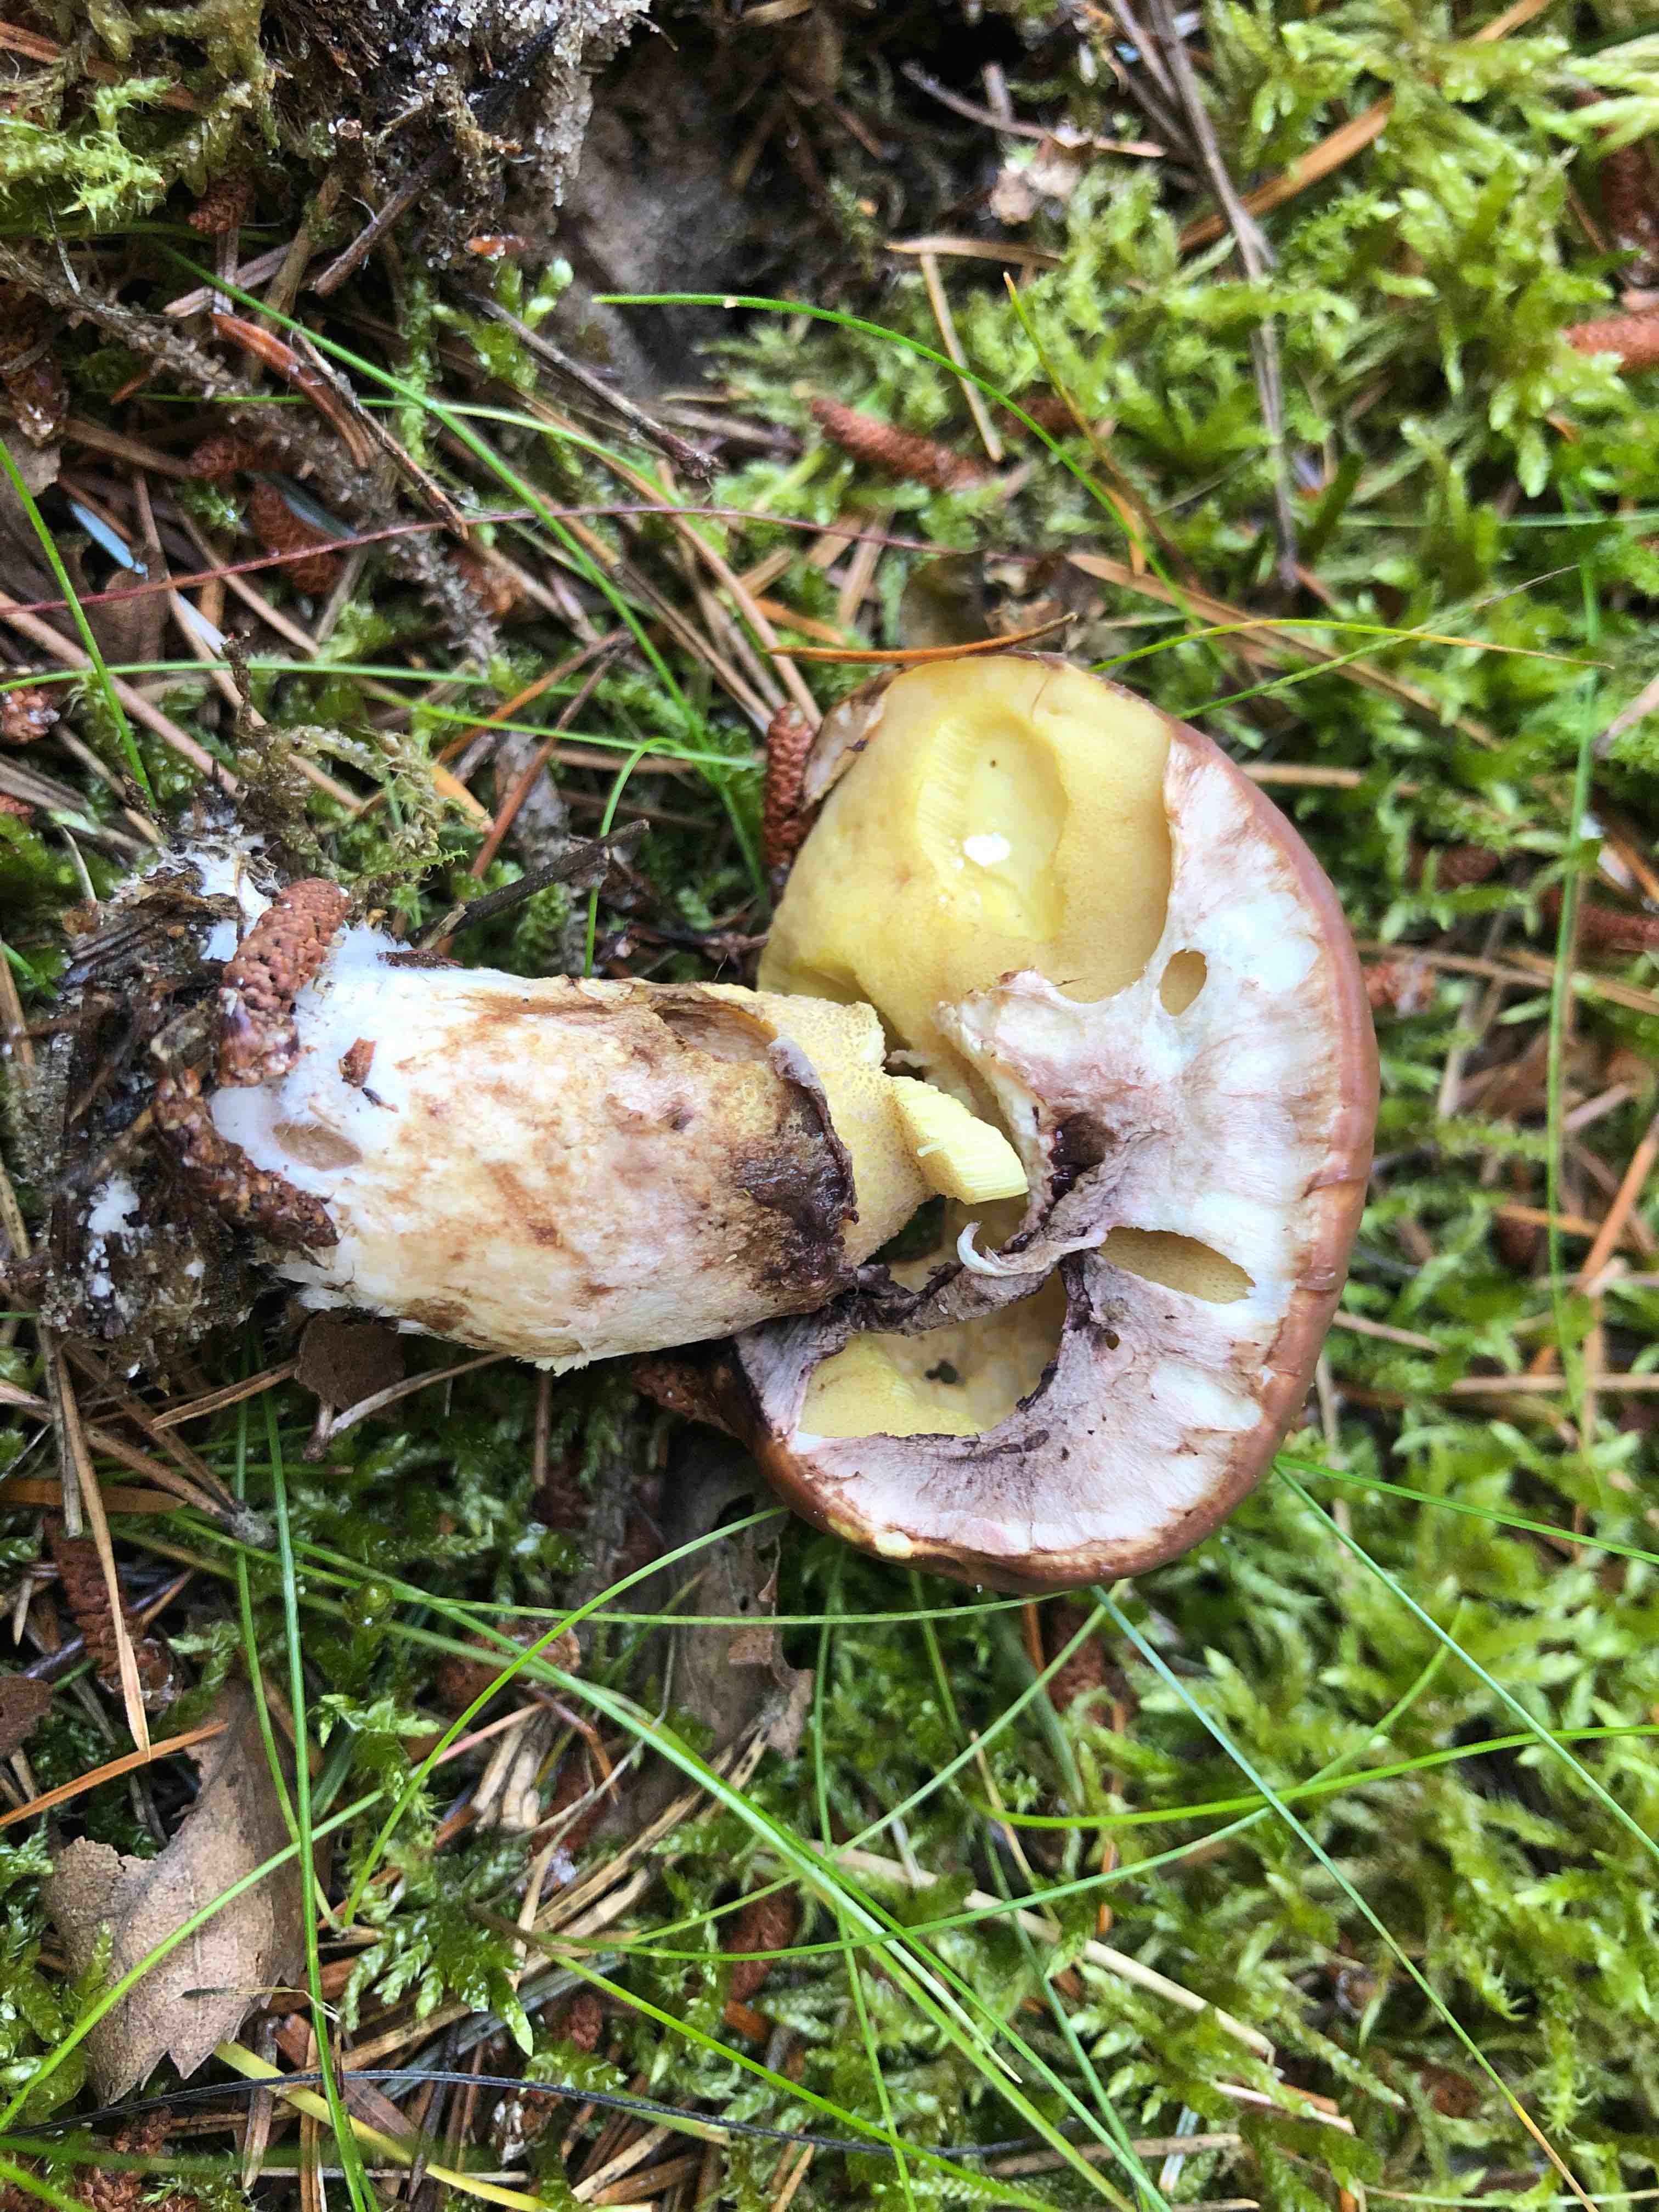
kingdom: Fungi
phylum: Basidiomycota
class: Agaricomycetes
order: Boletales
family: Suillaceae
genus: Suillus
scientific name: Suillus luteus
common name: brungul slimrørhat
